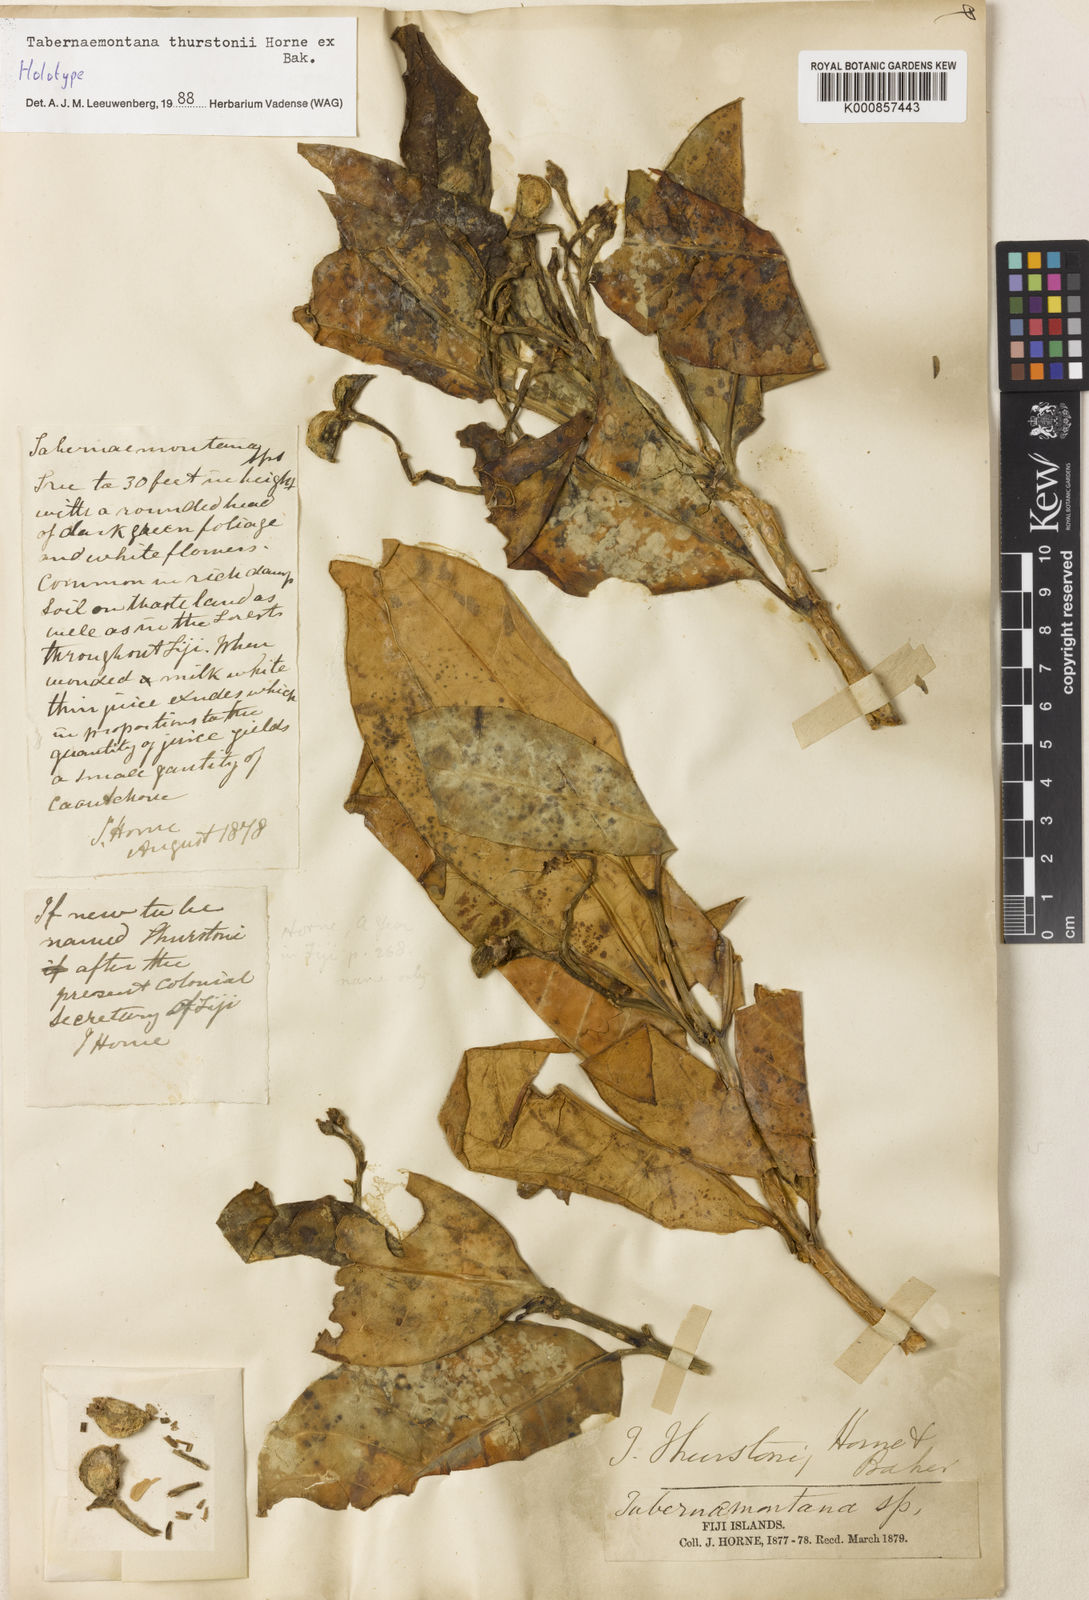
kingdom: Plantae
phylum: Tracheophyta
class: Magnoliopsida
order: Gentianales
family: Apocynaceae
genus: Tabernaemontana
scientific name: Tabernaemontana thurstonii
